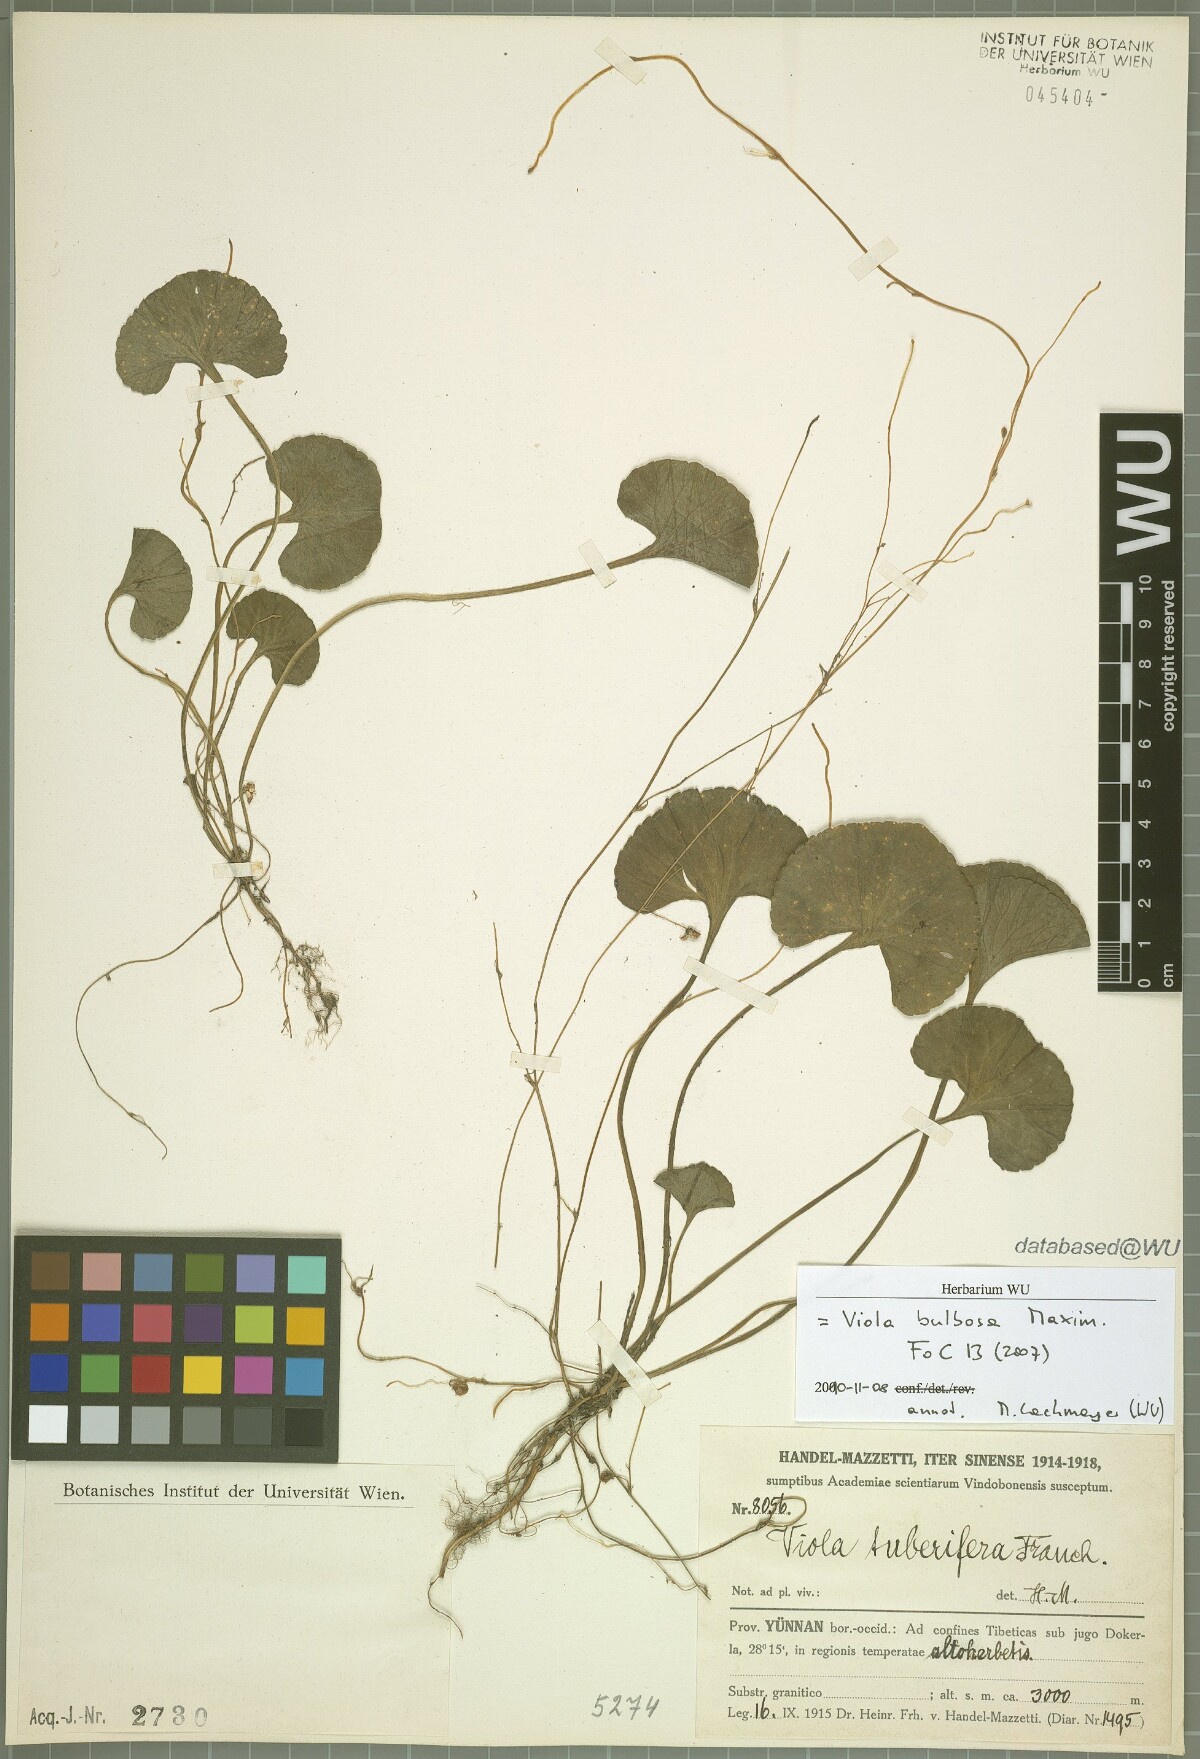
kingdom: Plantae
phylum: Tracheophyta
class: Magnoliopsida
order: Malpighiales
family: Violaceae
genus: Viola
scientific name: Viola bulbosa
